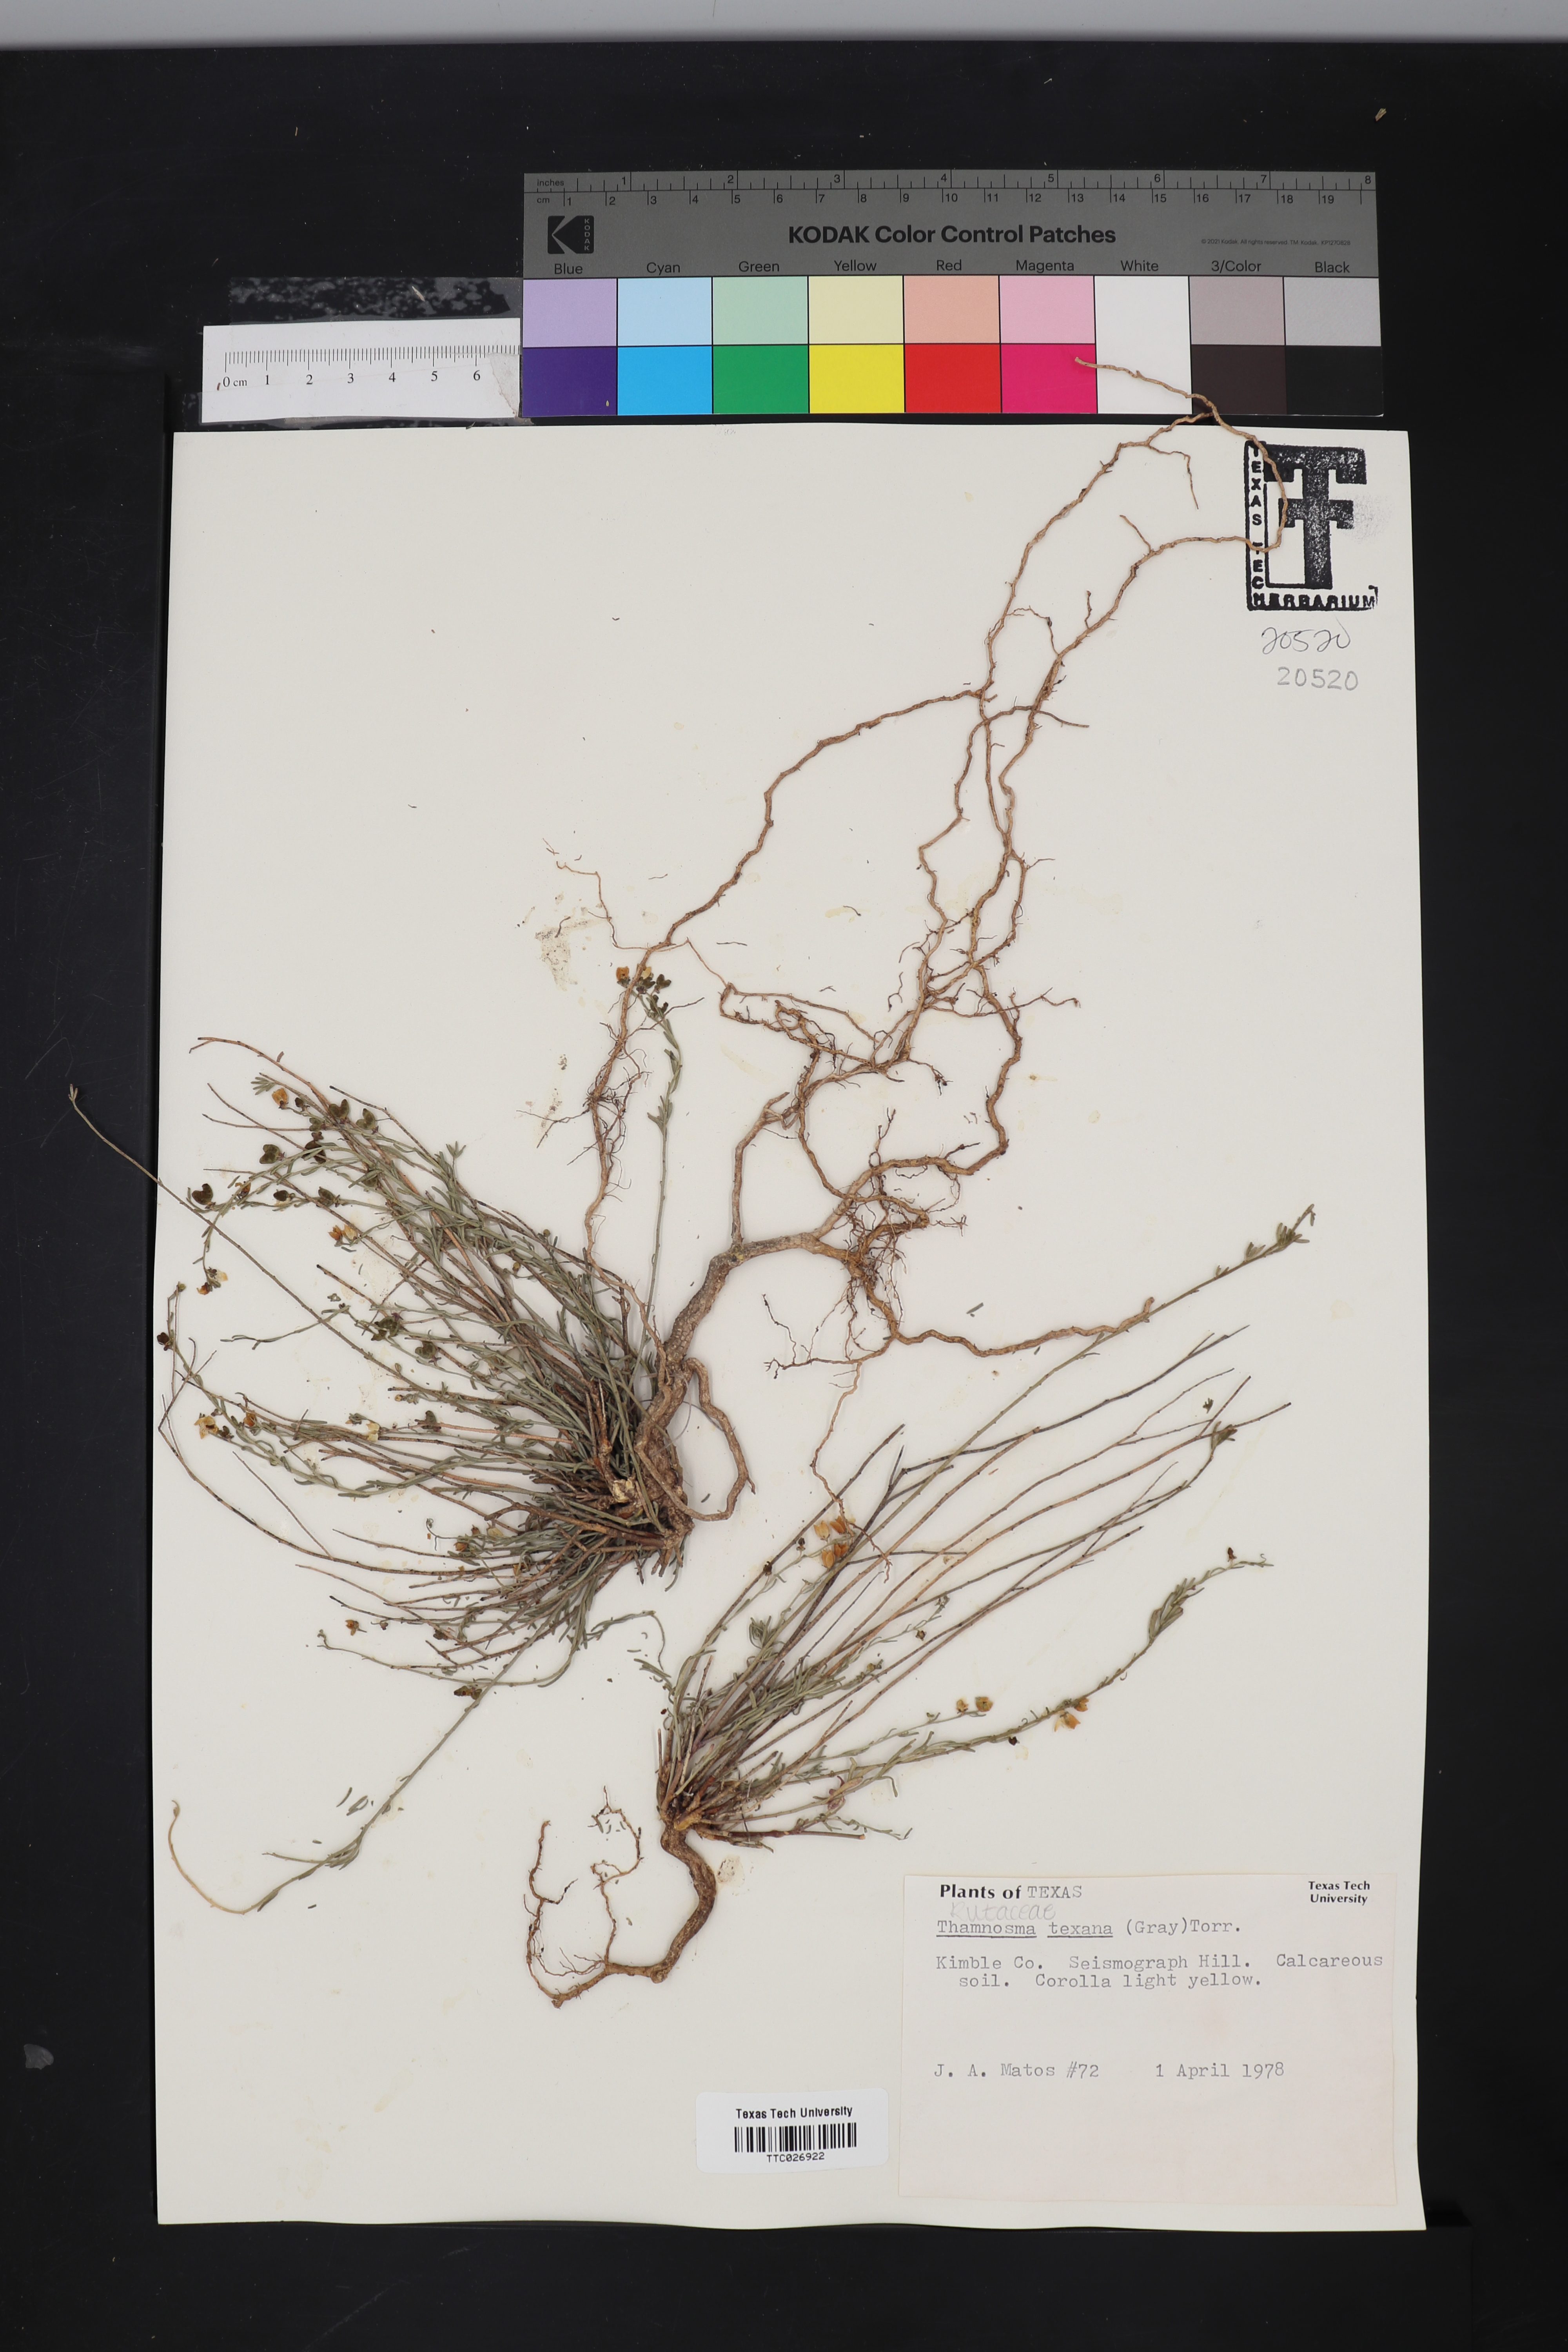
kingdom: Plantae
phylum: Tracheophyta
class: Magnoliopsida
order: Sapindales
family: Rutaceae
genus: Thamnosma
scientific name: Thamnosma texana
